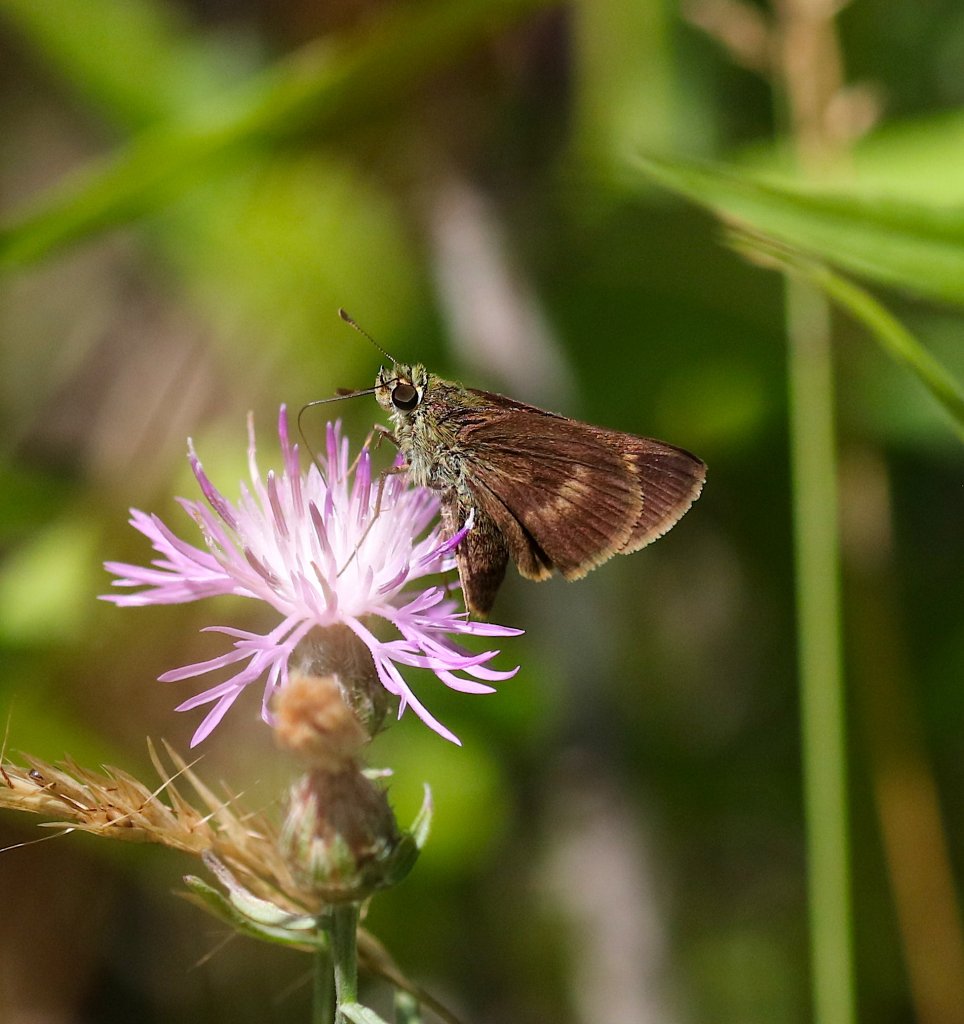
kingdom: Animalia
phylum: Arthropoda
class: Insecta
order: Lepidoptera
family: Hesperiidae
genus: Polites
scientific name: Polites egeremet
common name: Northern Broken-Dash
